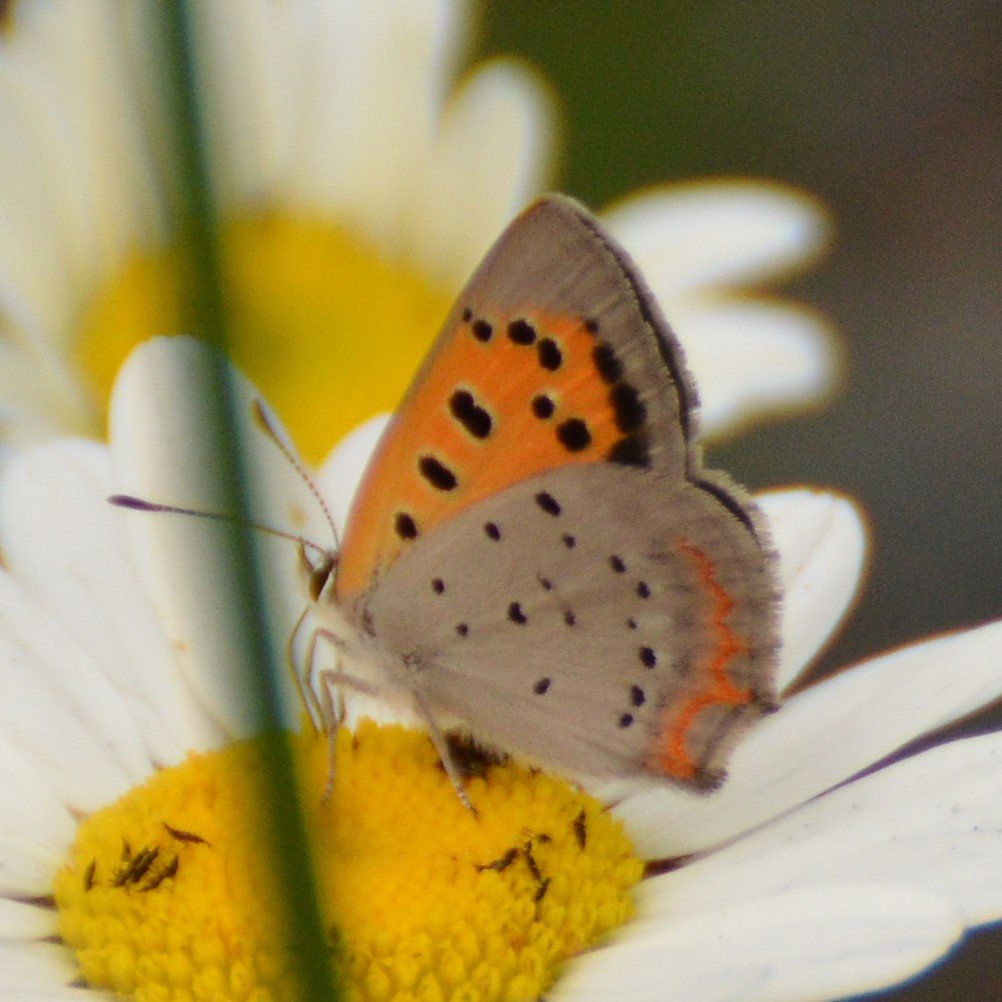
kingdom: Animalia
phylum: Arthropoda
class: Insecta
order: Lepidoptera
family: Lycaenidae
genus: Lycaena
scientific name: Lycaena phlaeas
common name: American Copper
